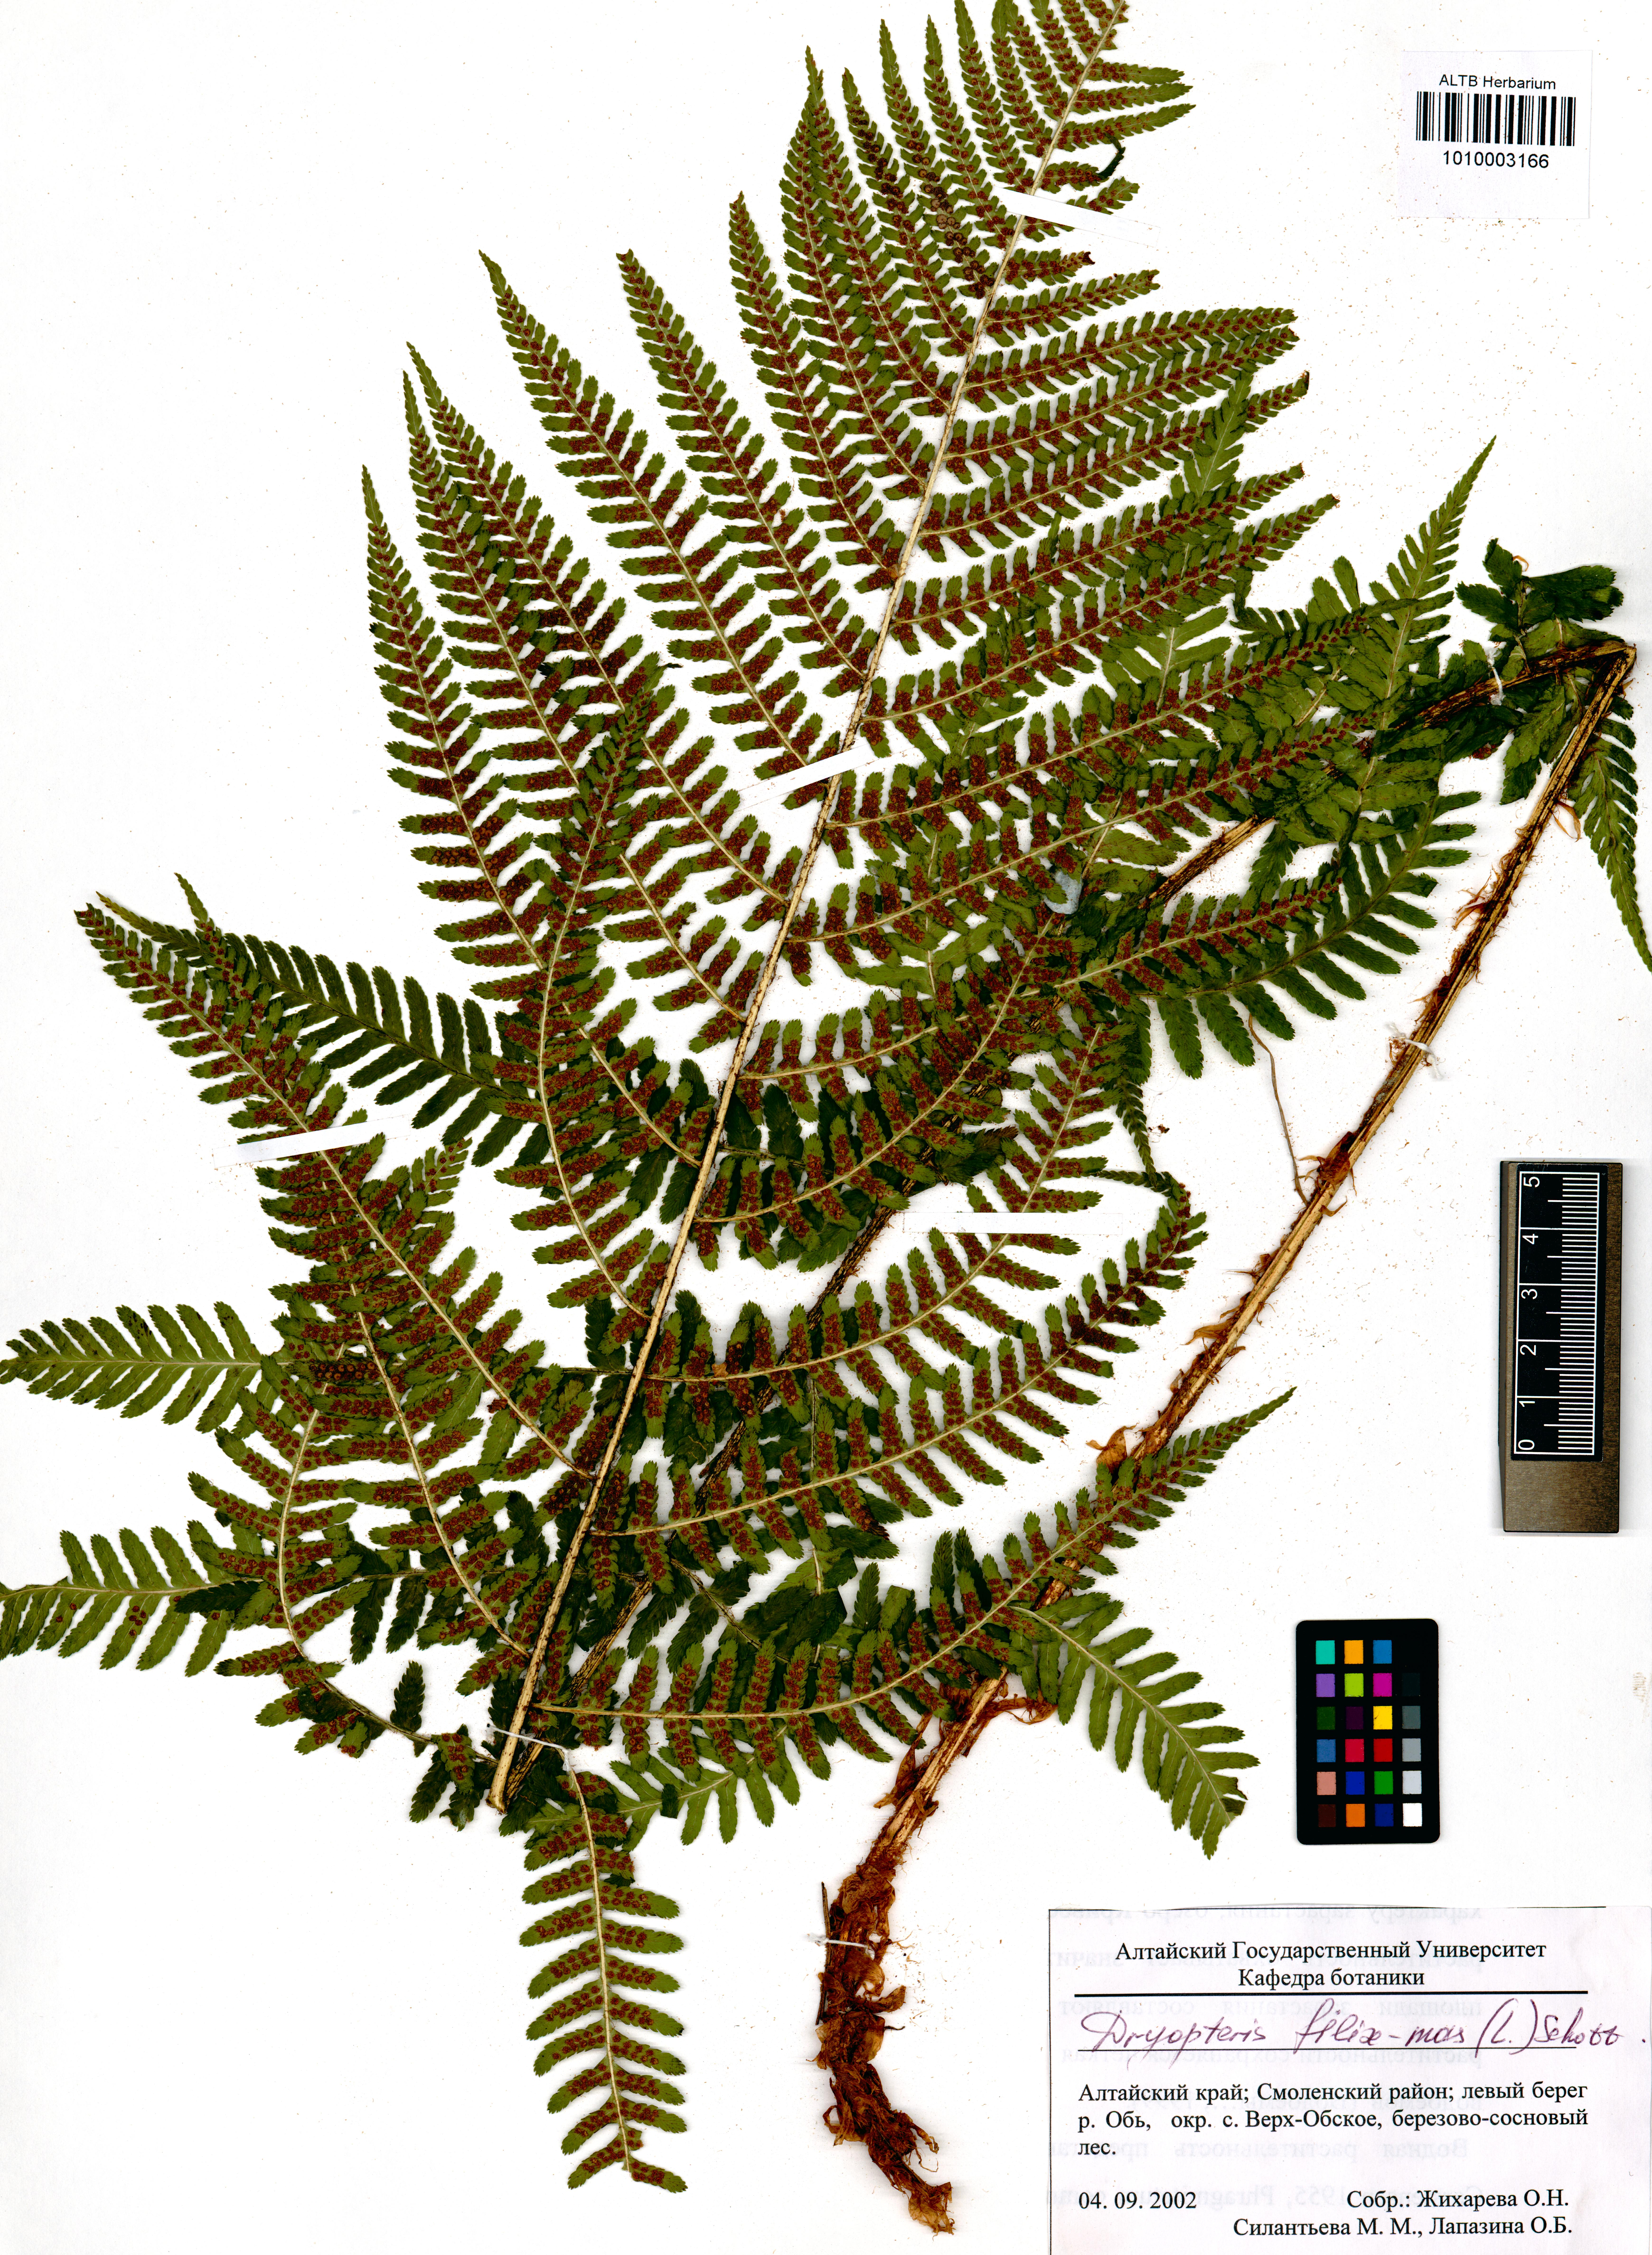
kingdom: Plantae
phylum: Tracheophyta
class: Polypodiopsida
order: Polypodiales
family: Dryopteridaceae
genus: Dryopteris
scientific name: Dryopteris filix-mas
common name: Male fern
